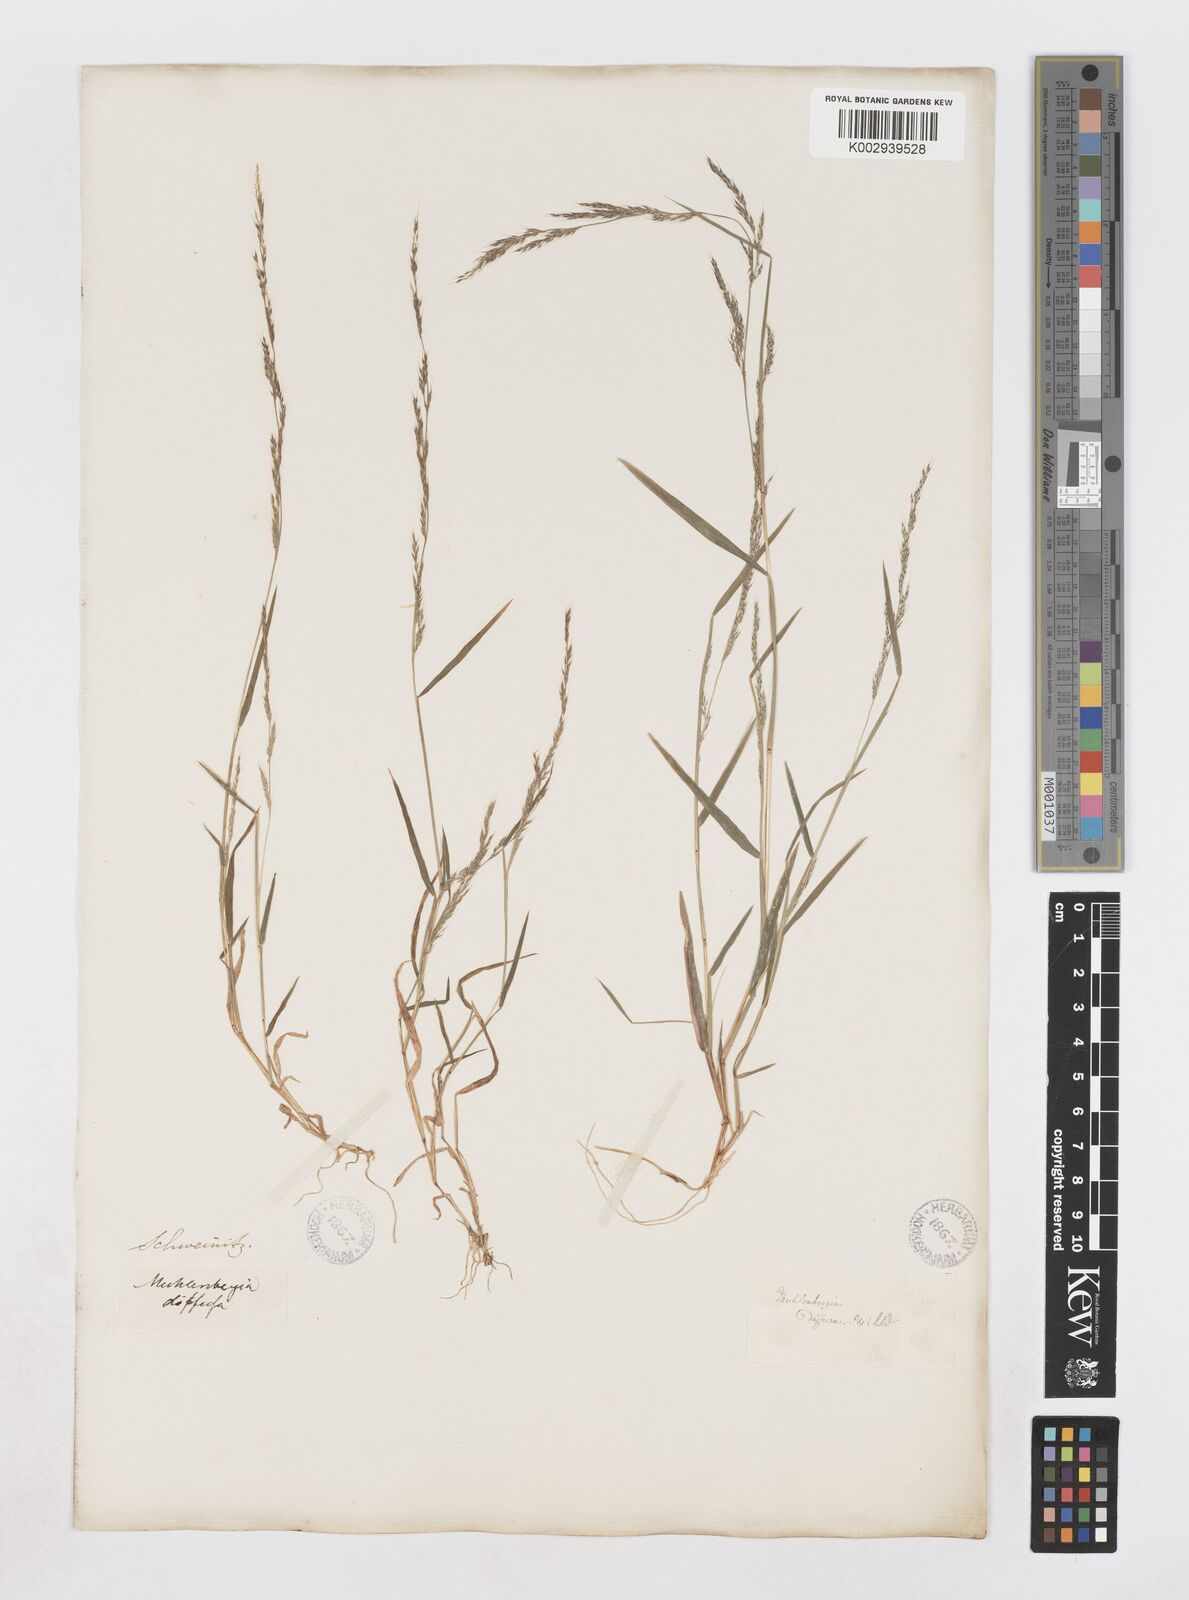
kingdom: Plantae
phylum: Tracheophyta
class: Liliopsida
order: Poales
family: Poaceae
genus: Muhlenbergia
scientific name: Muhlenbergia schreberi
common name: Nimblewill
